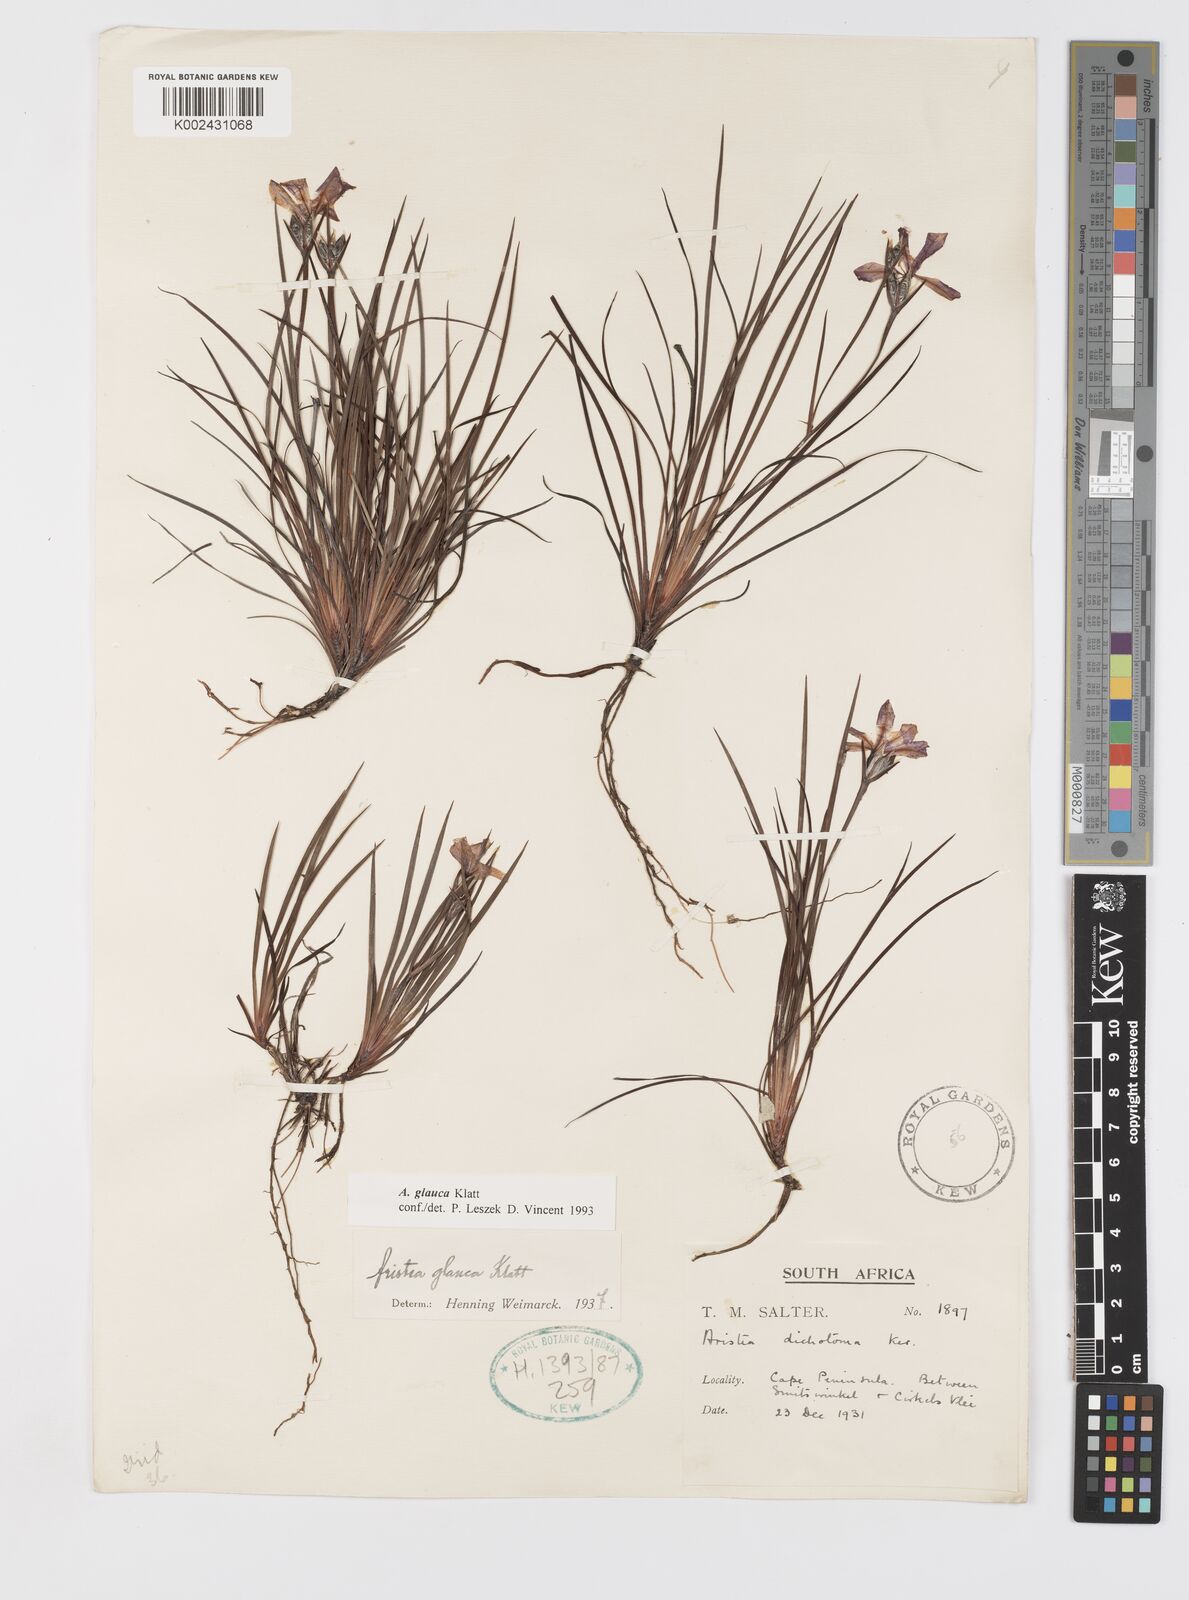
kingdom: Plantae
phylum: Tracheophyta
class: Liliopsida
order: Asparagales
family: Iridaceae
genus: Aristea
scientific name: Aristea glauca
